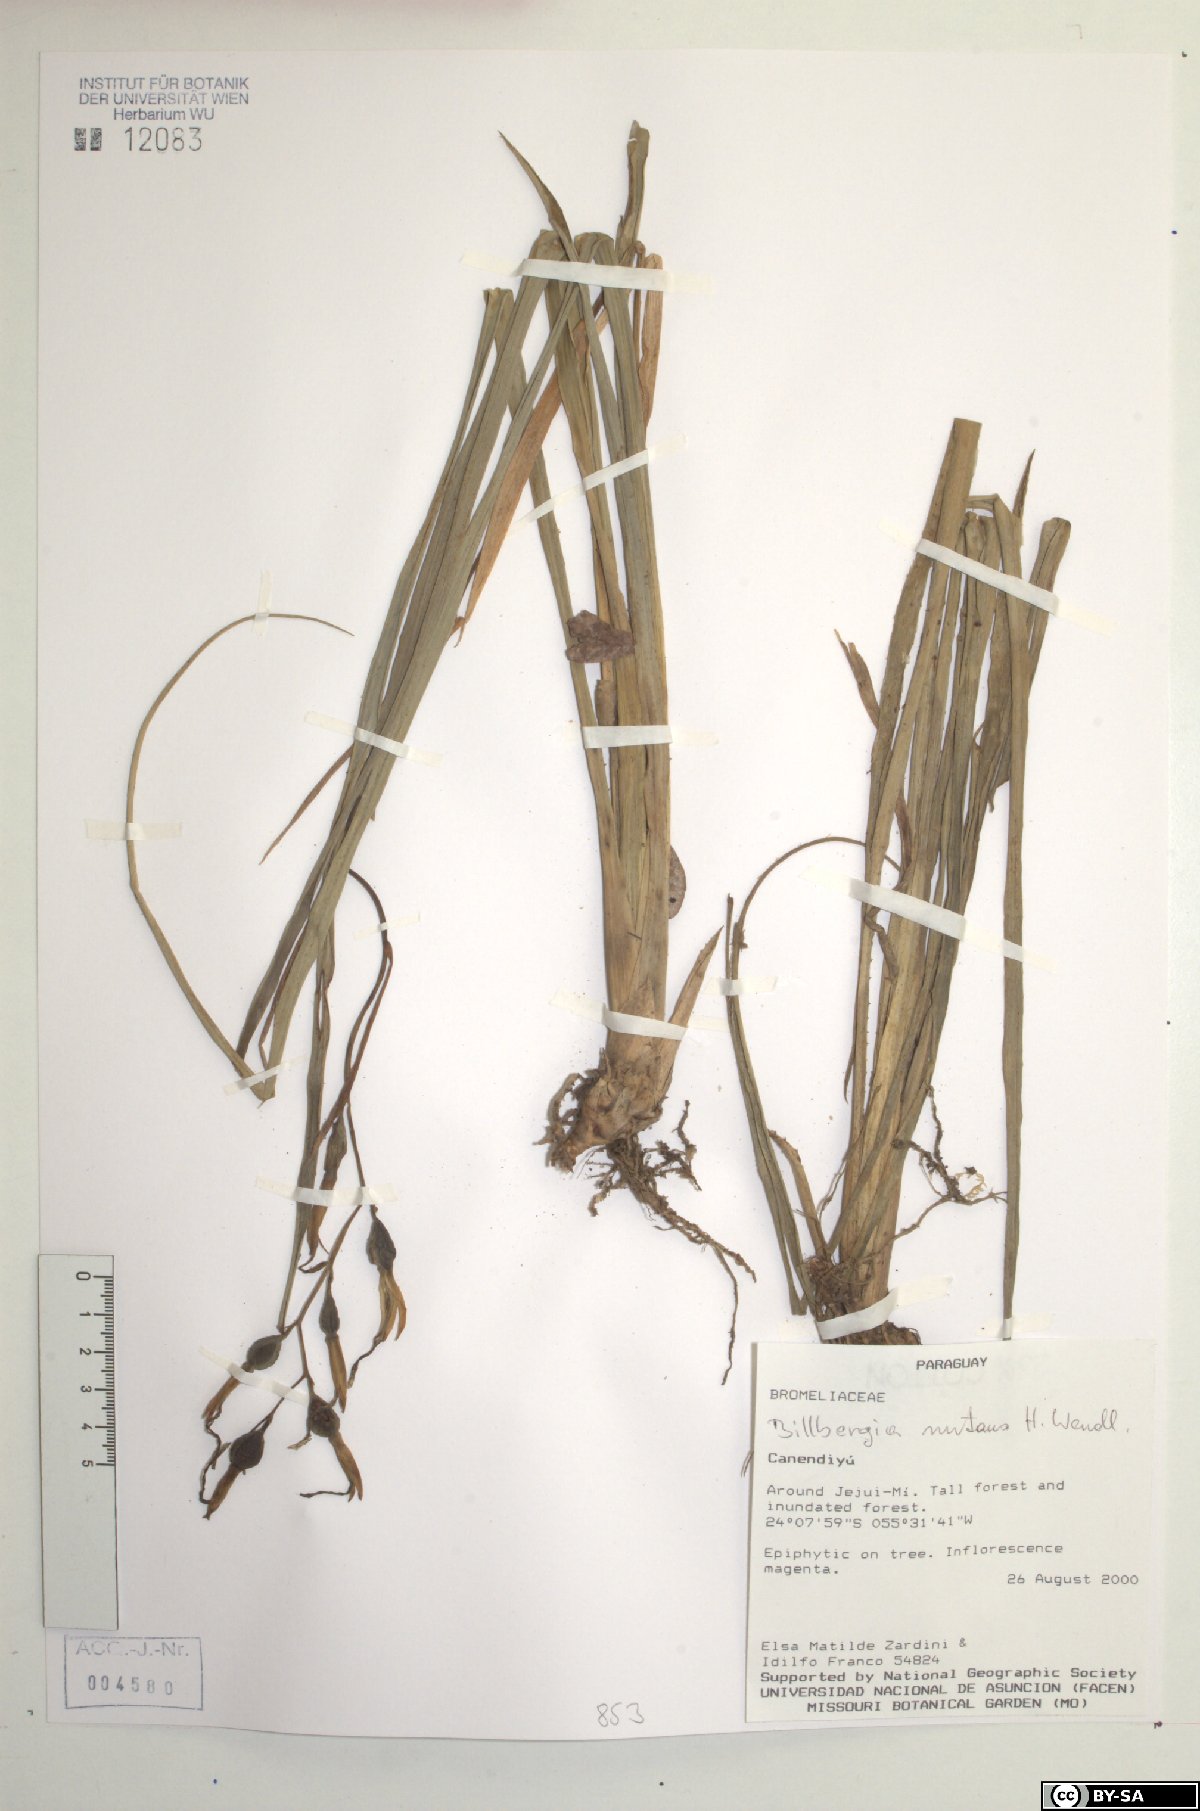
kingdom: Plantae
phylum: Tracheophyta
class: Liliopsida
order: Poales
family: Bromeliaceae
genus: Billbergia
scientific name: Billbergia nutans
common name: Friendship-plant
